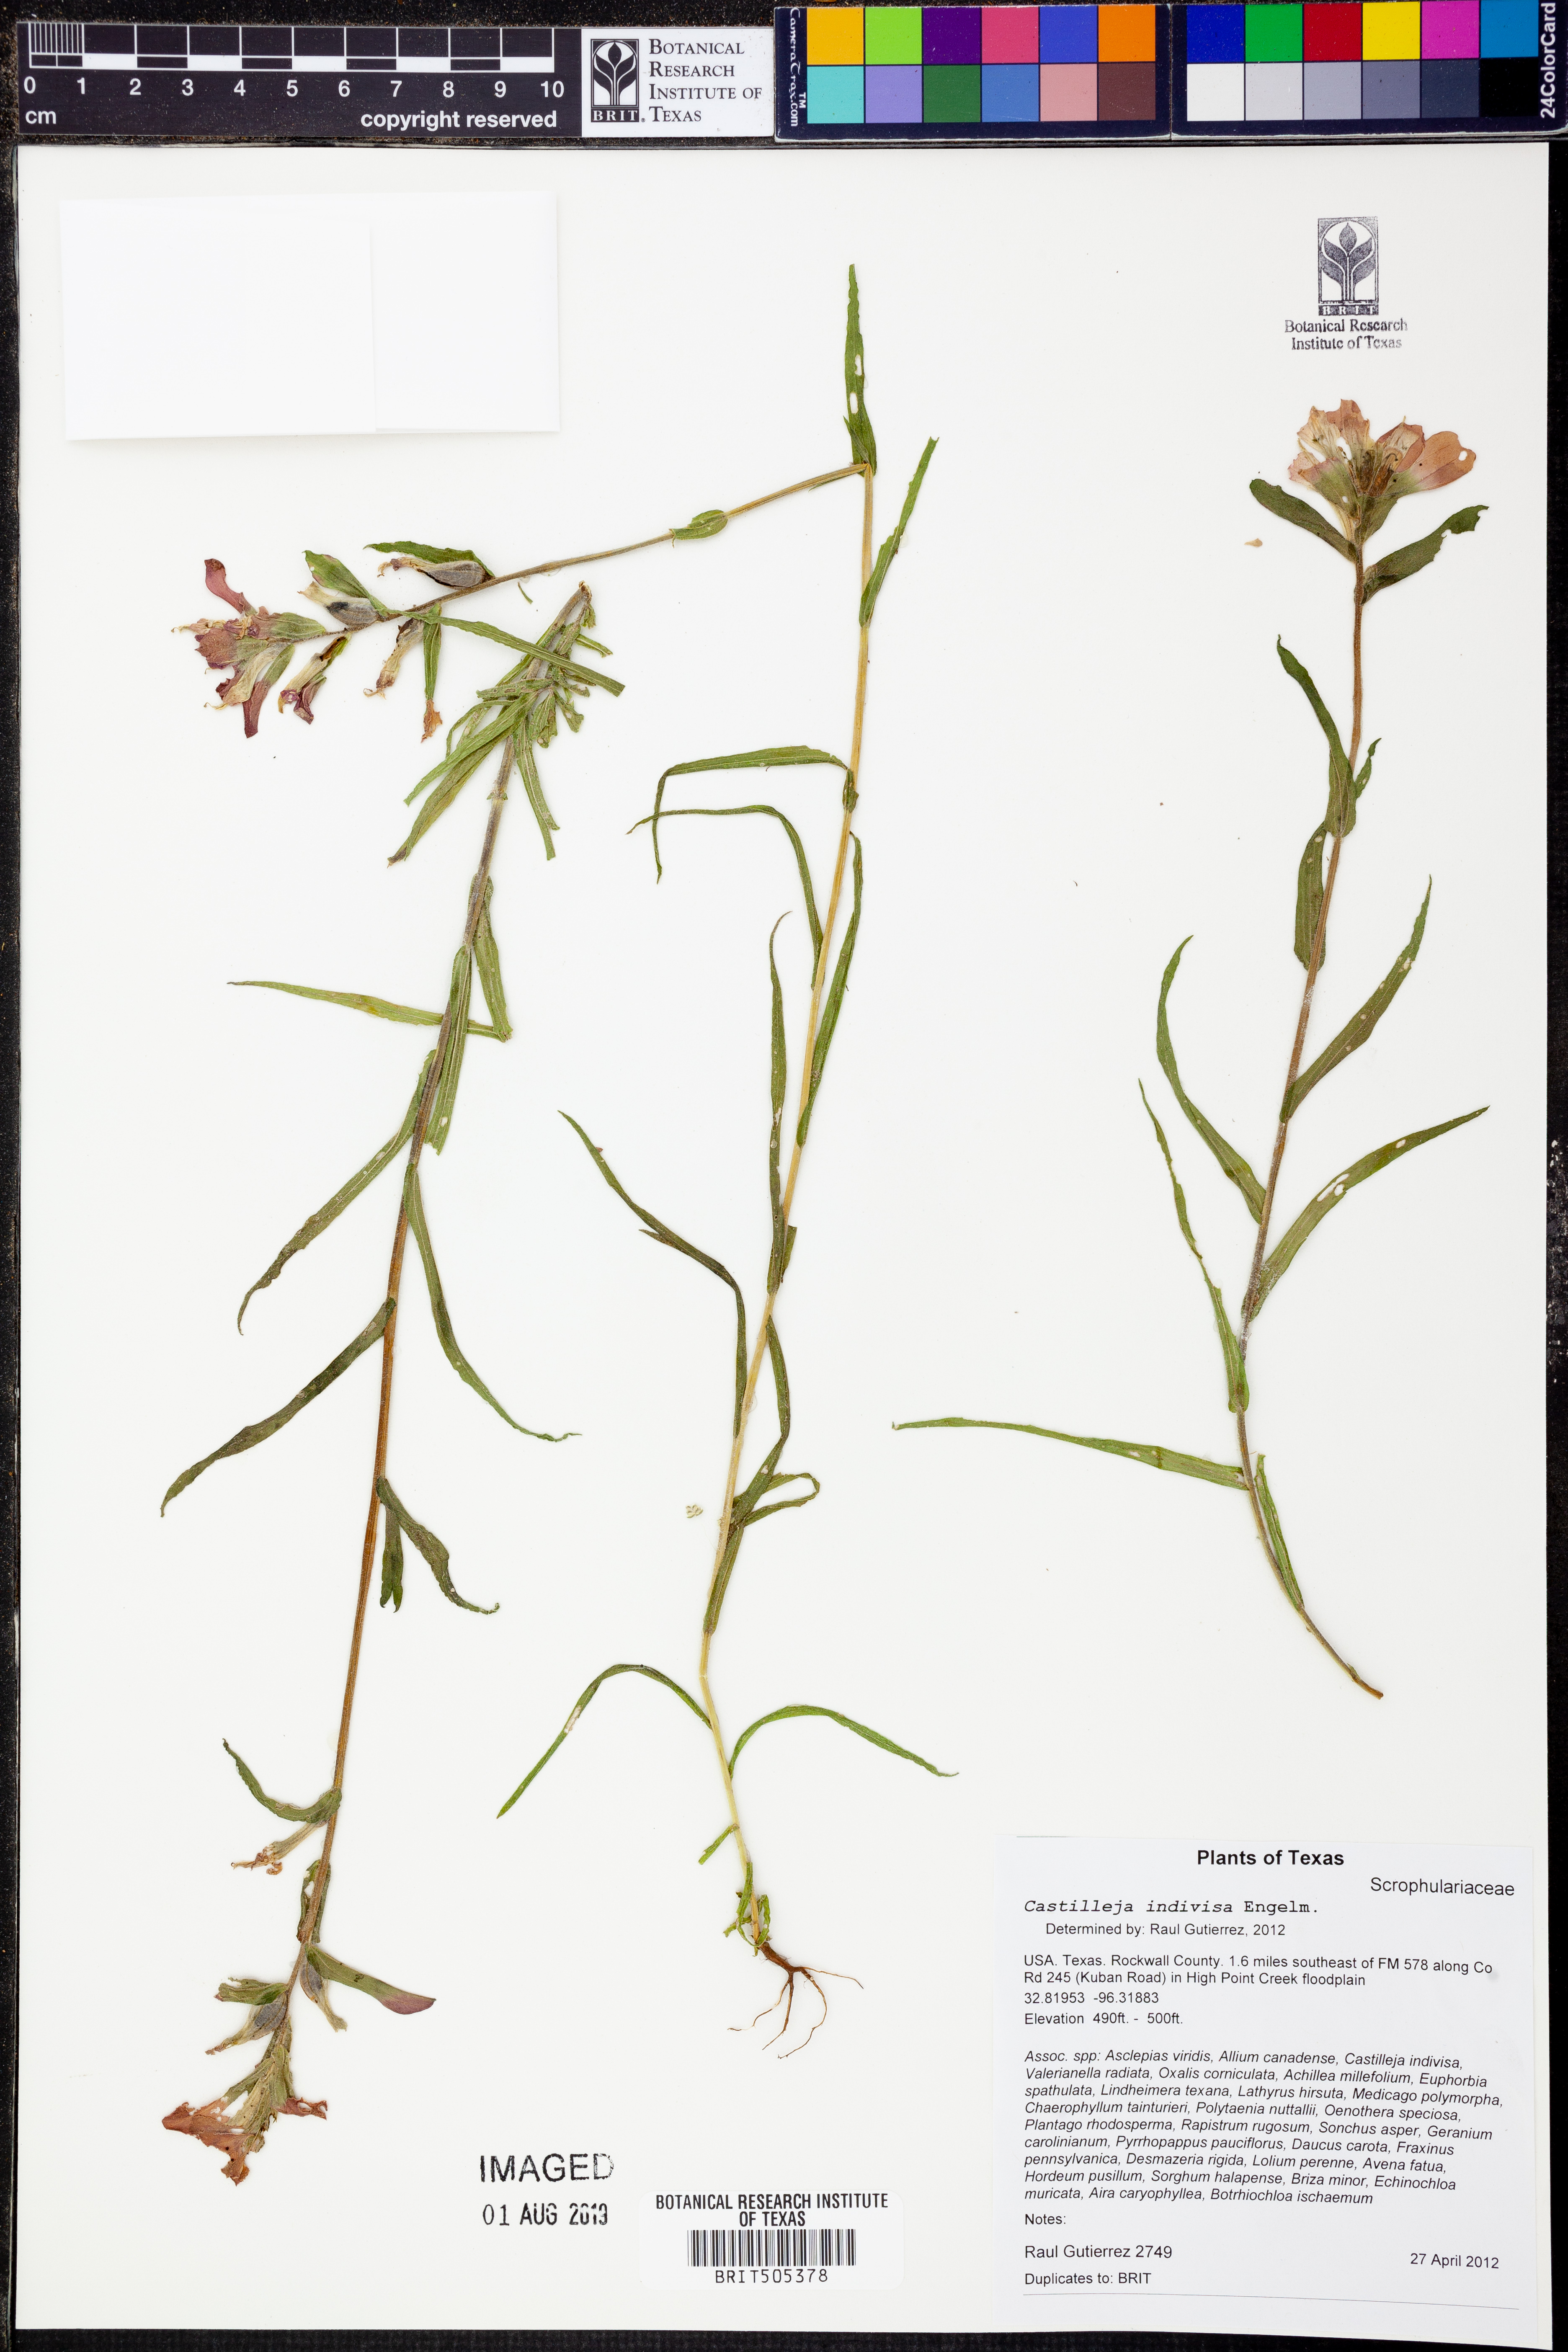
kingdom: Plantae
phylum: Tracheophyta
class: Magnoliopsida
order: Lamiales
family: Orobanchaceae
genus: Castilleja
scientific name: Castilleja indivisa
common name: Texas paintbrush
